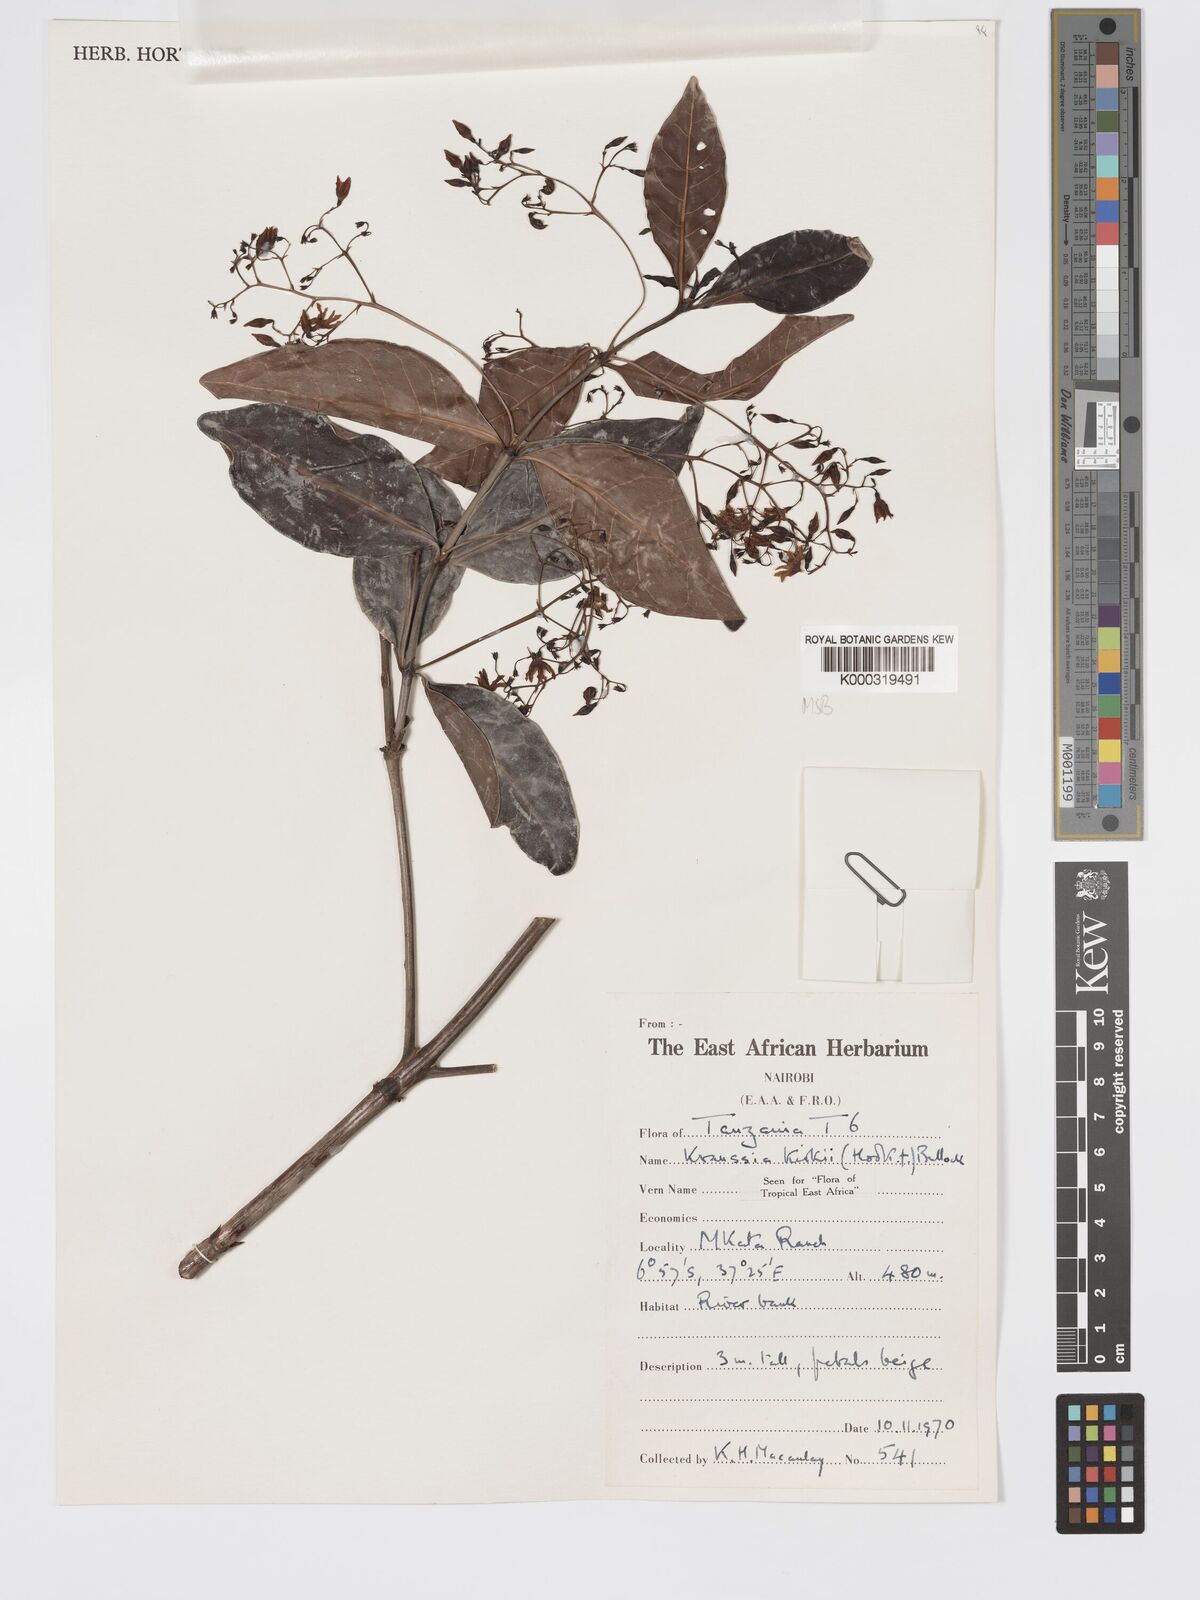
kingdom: Plantae
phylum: Tracheophyta
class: Magnoliopsida
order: Gentianales
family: Rubiaceae
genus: Kraussia
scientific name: Kraussia kirkii
